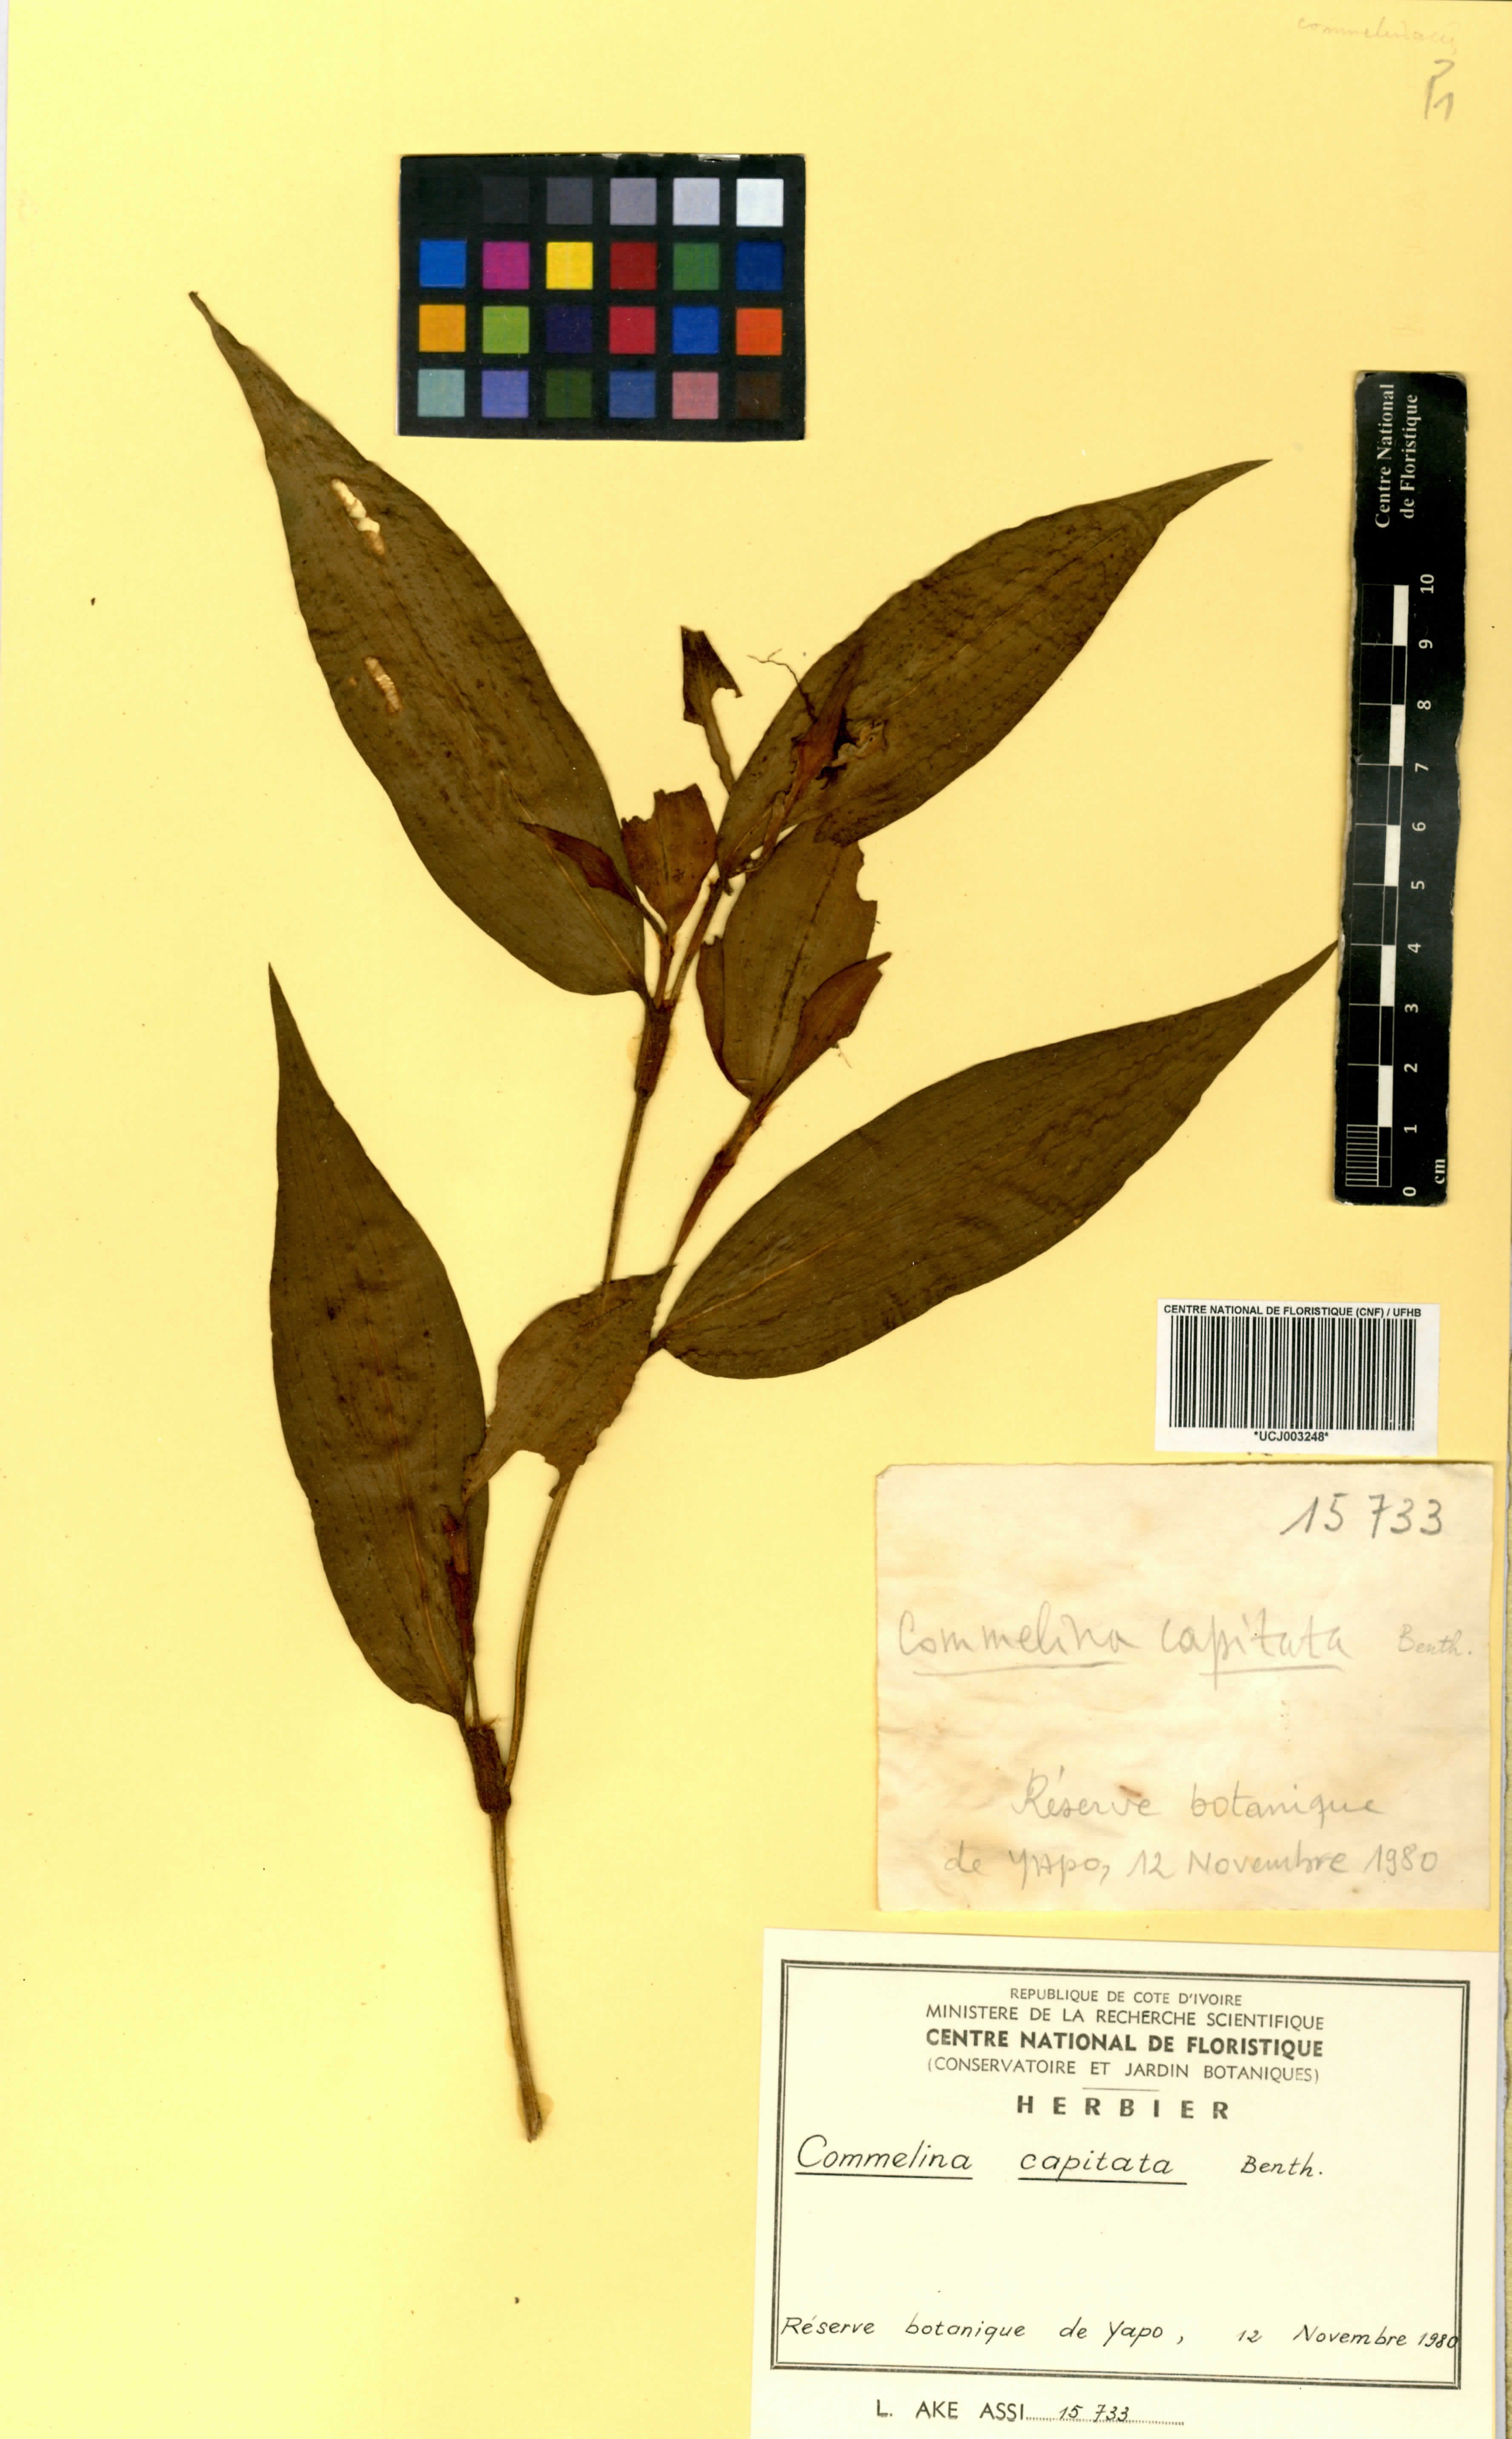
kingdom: Plantae
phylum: Tracheophyta
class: Liliopsida
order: Commelinales
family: Commelinaceae
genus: Commelina
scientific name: Commelina capitata
